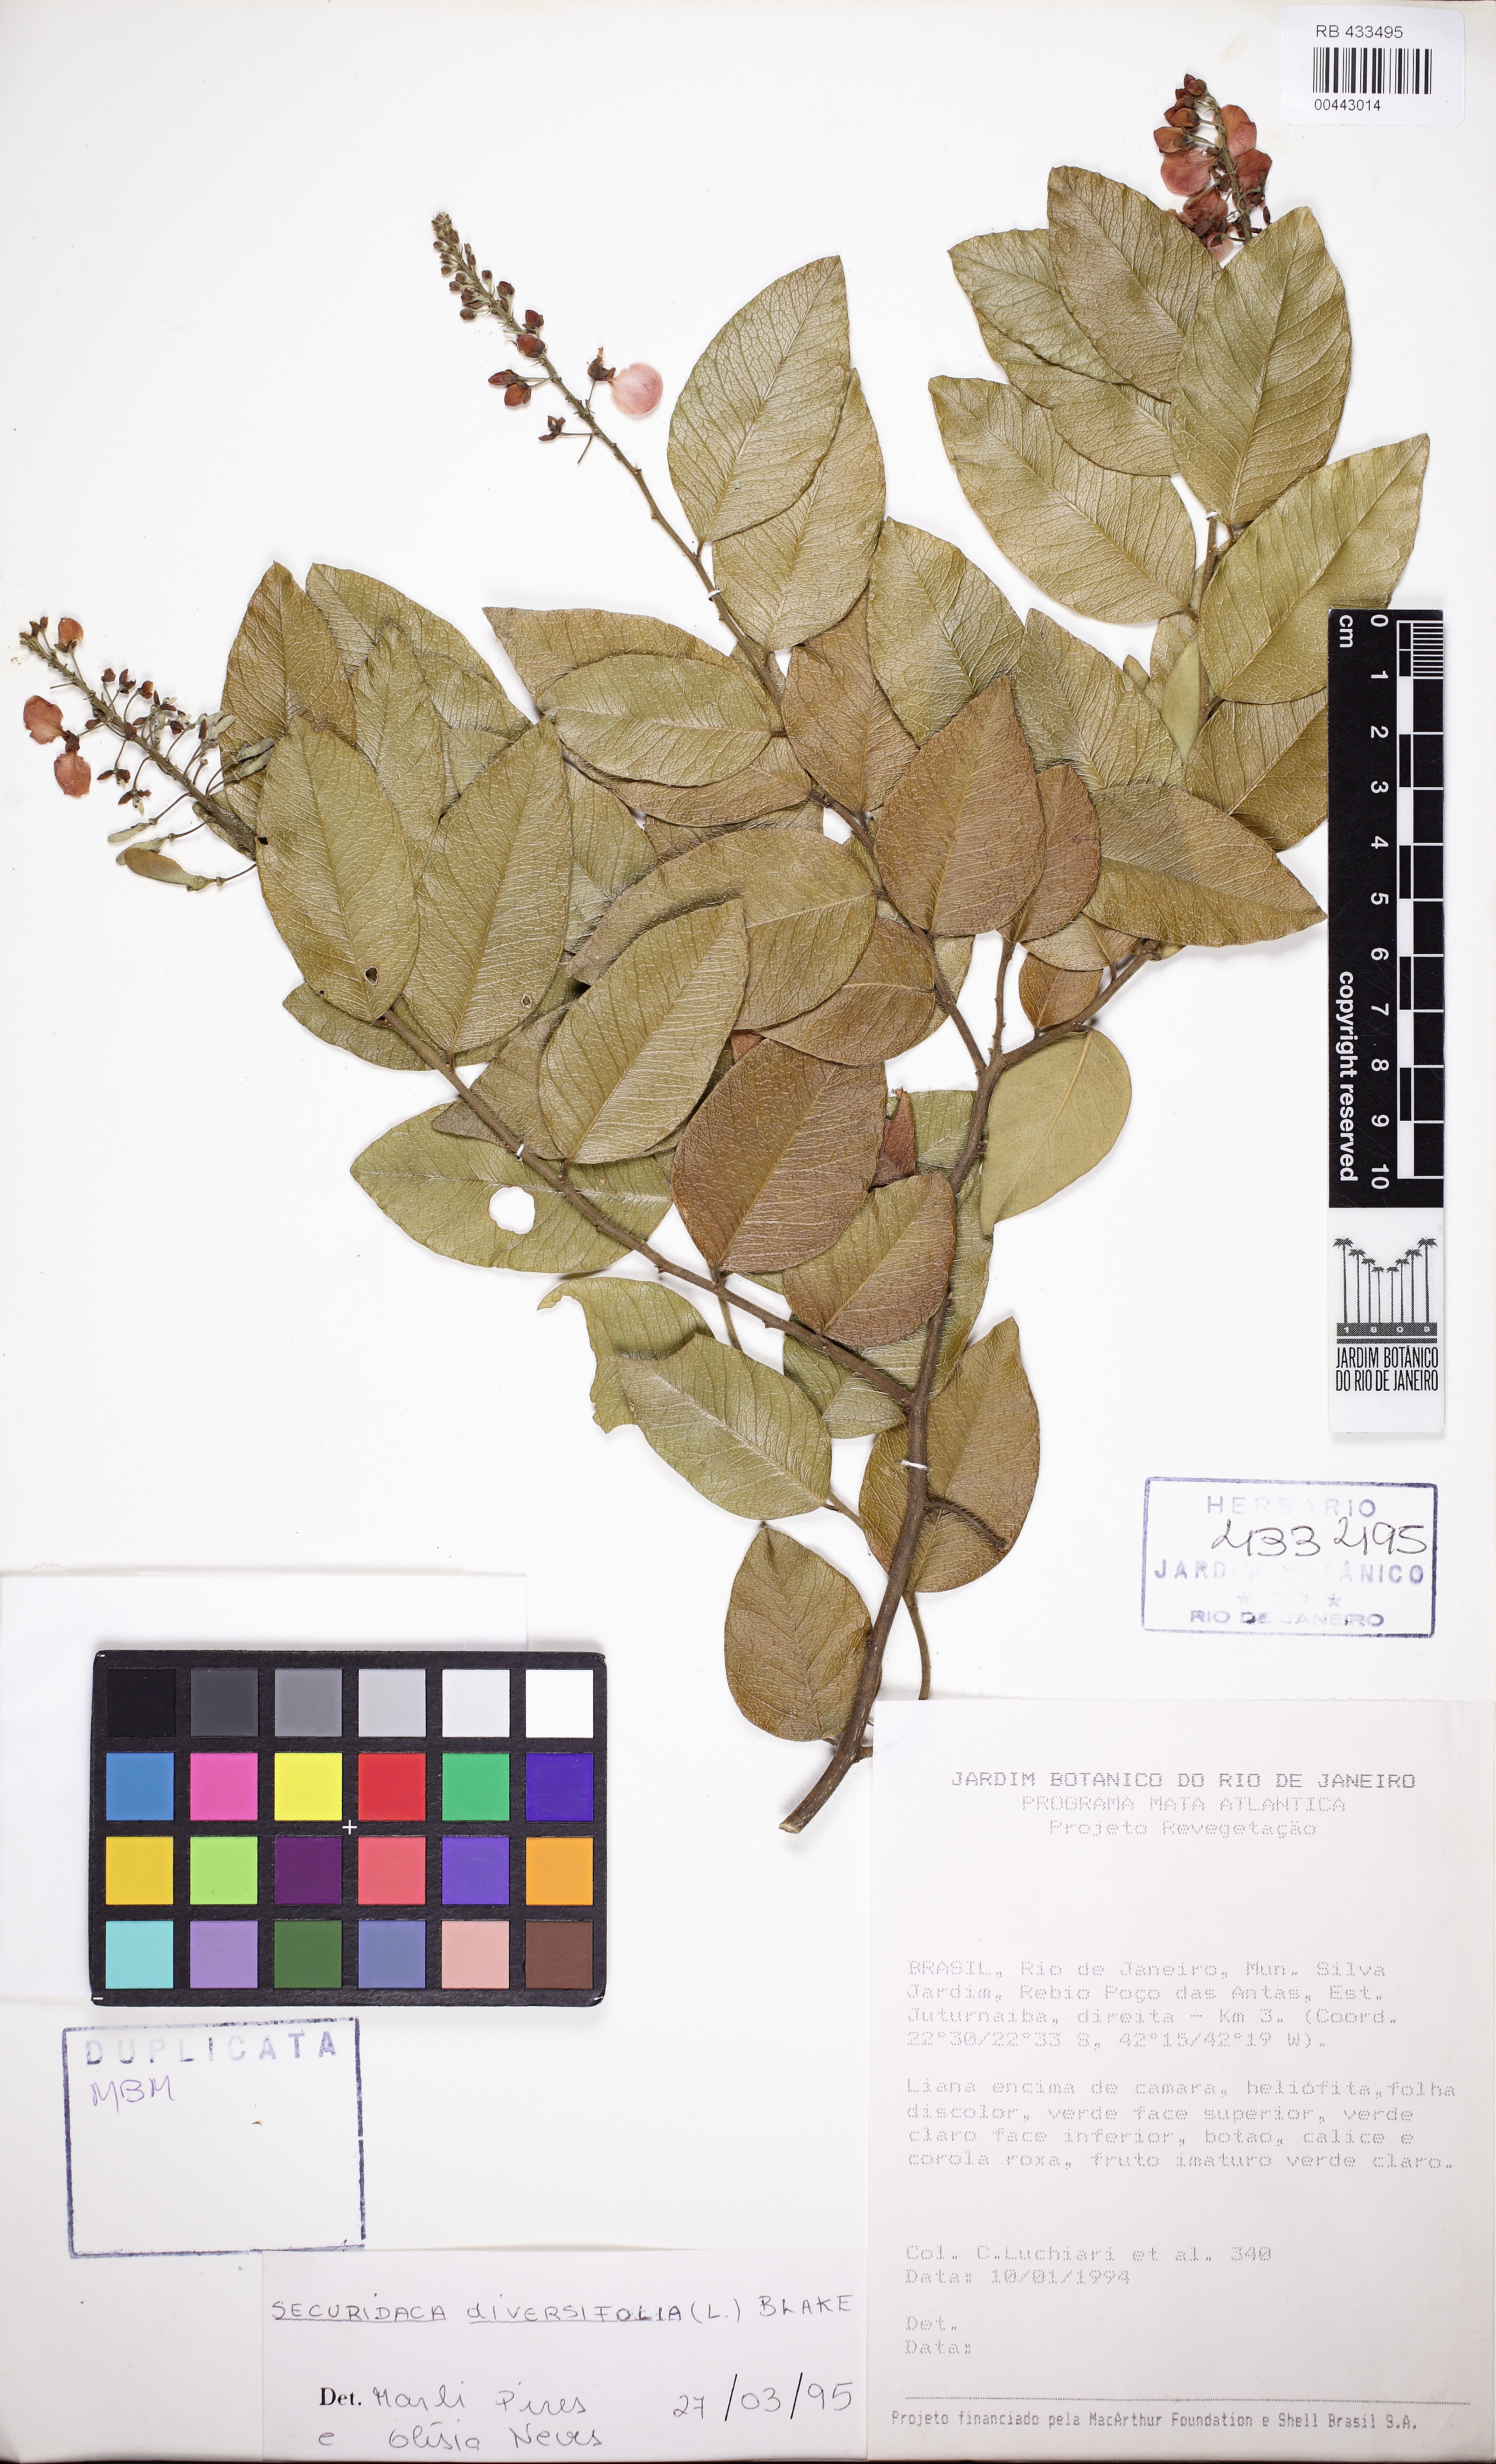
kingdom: Plantae
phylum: Tracheophyta
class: Magnoliopsida
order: Fabales
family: Polygalaceae
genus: Securidaca
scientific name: Securidaca diversifolia
